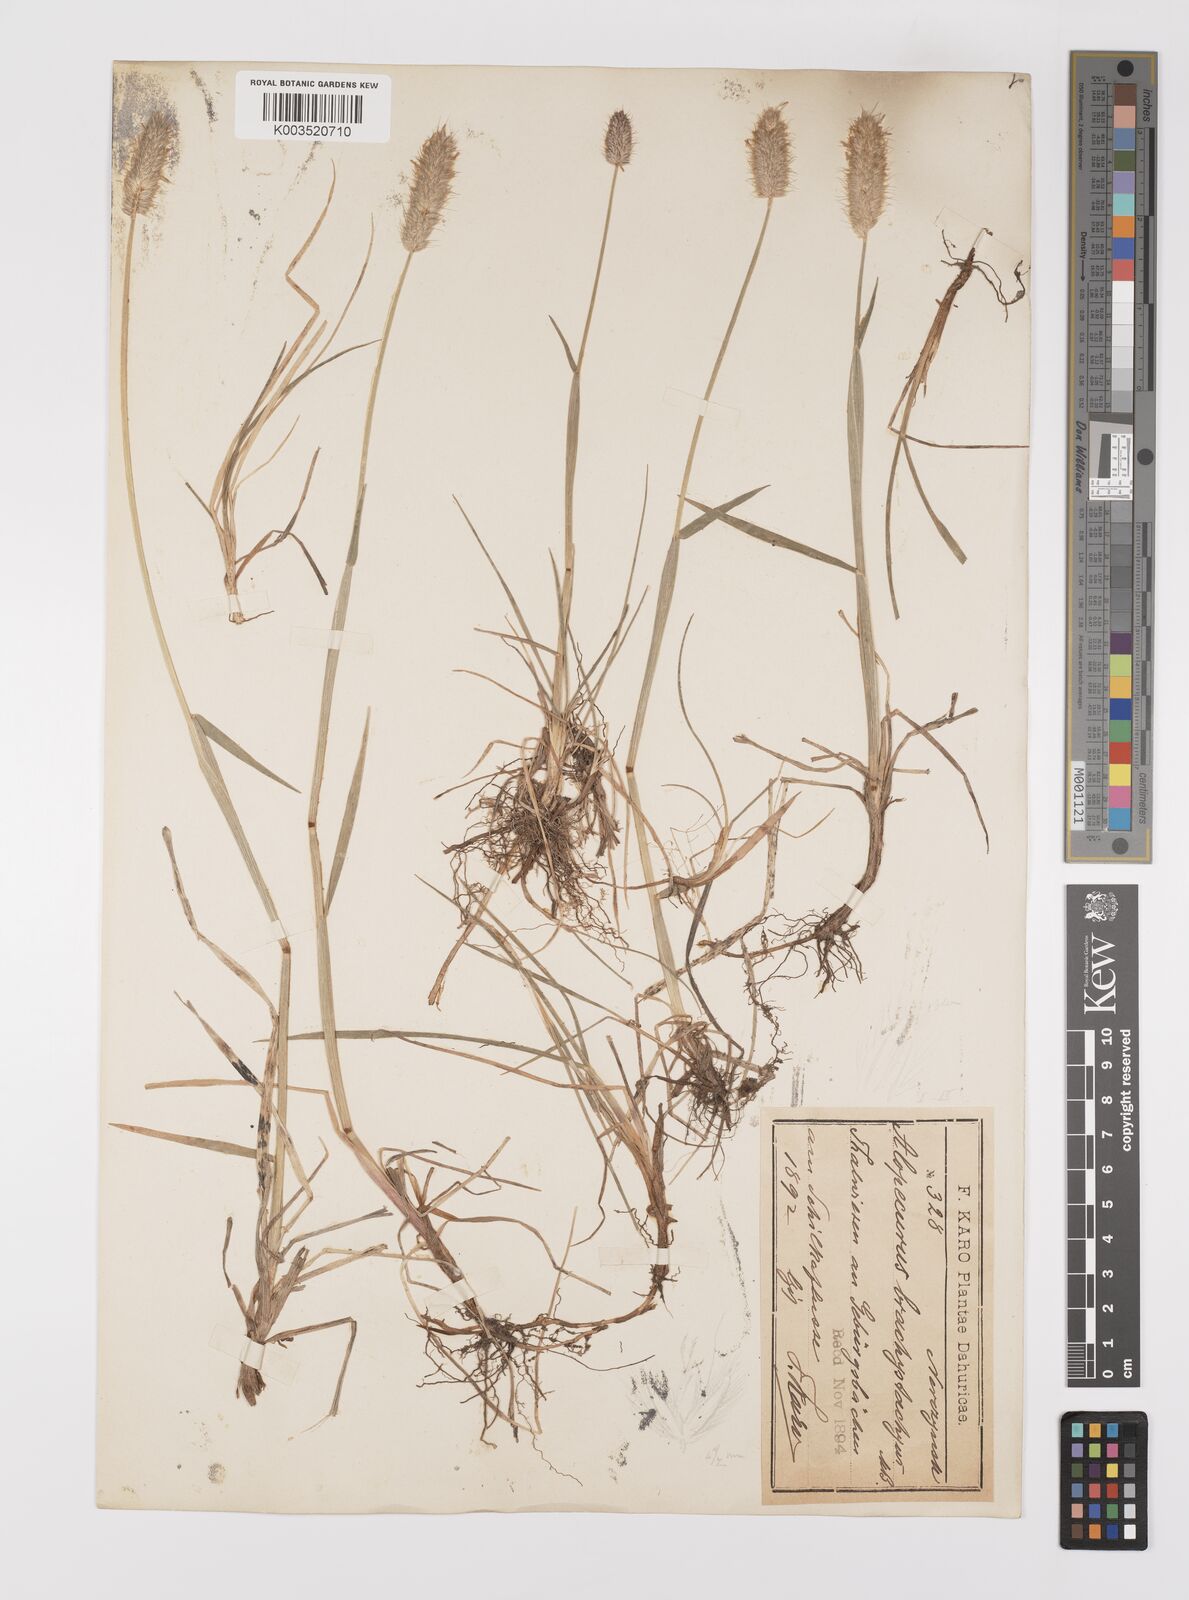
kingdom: Plantae
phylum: Tracheophyta
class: Liliopsida
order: Poales
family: Poaceae
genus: Alopecurus
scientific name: Alopecurus brachystachyus
